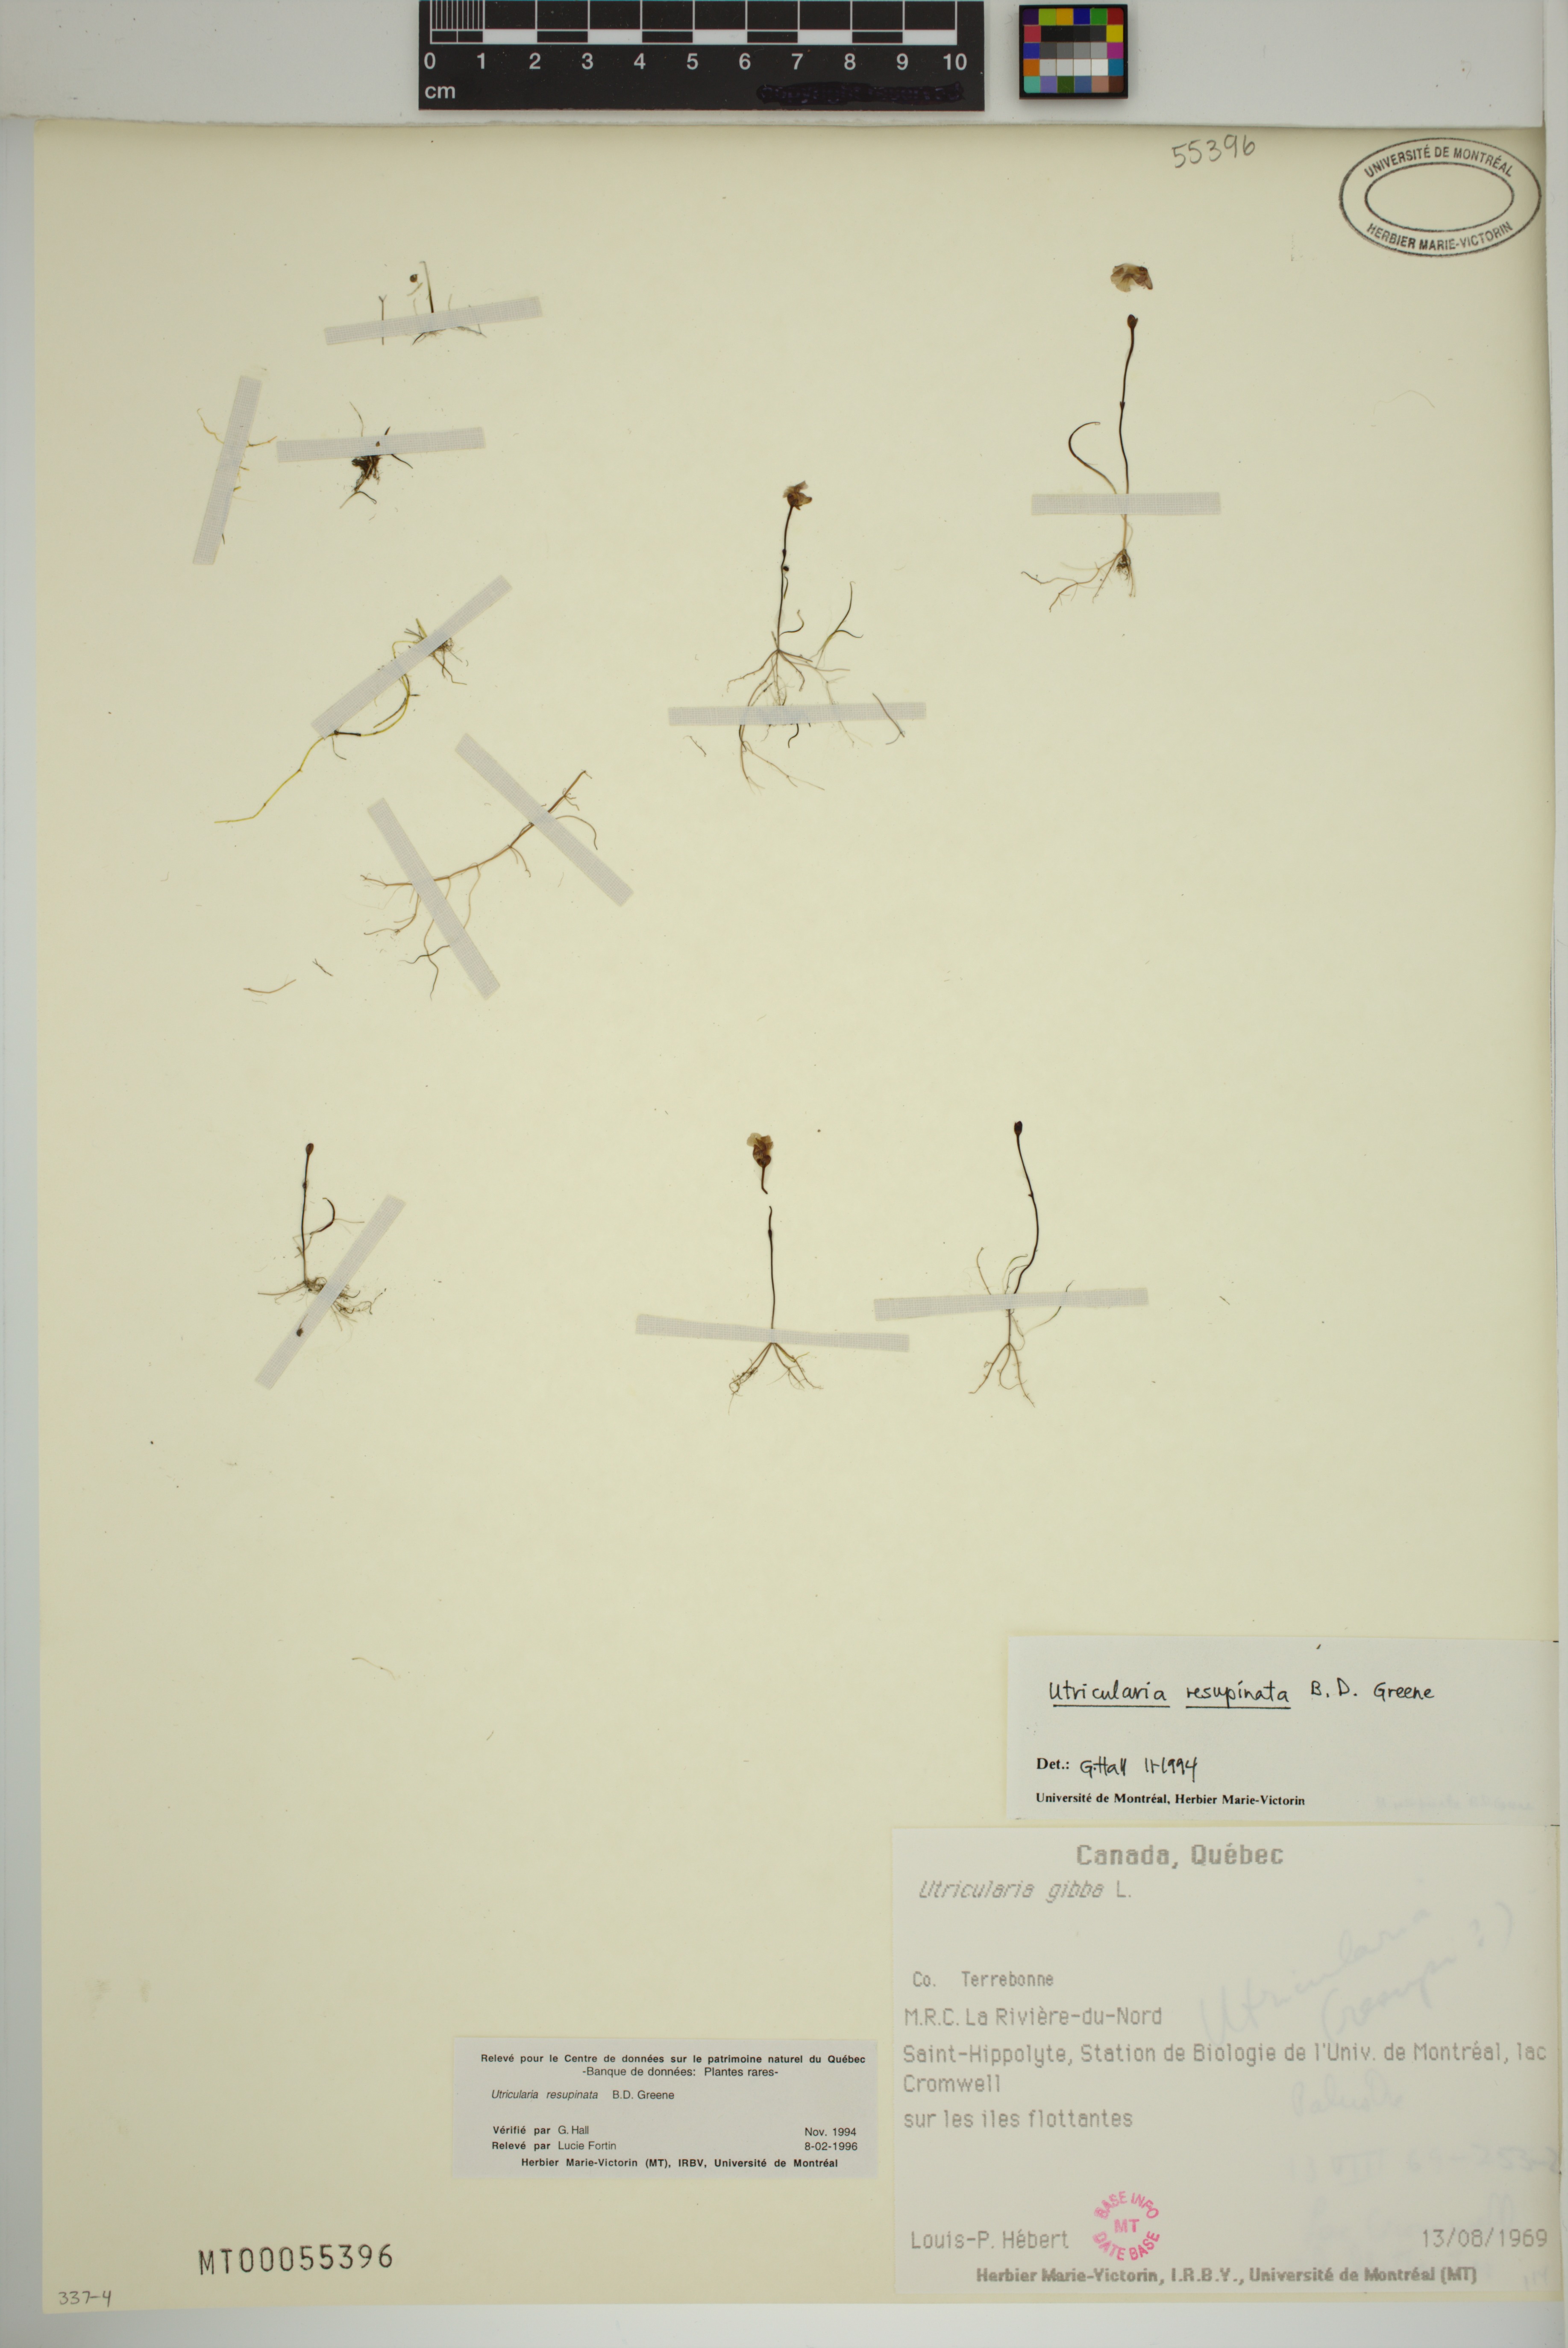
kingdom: Plantae
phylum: Tracheophyta
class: Magnoliopsida
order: Lamiales
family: Lentibulariaceae
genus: Utricularia
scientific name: Utricularia resupinata
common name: Northeastern bladderwort
